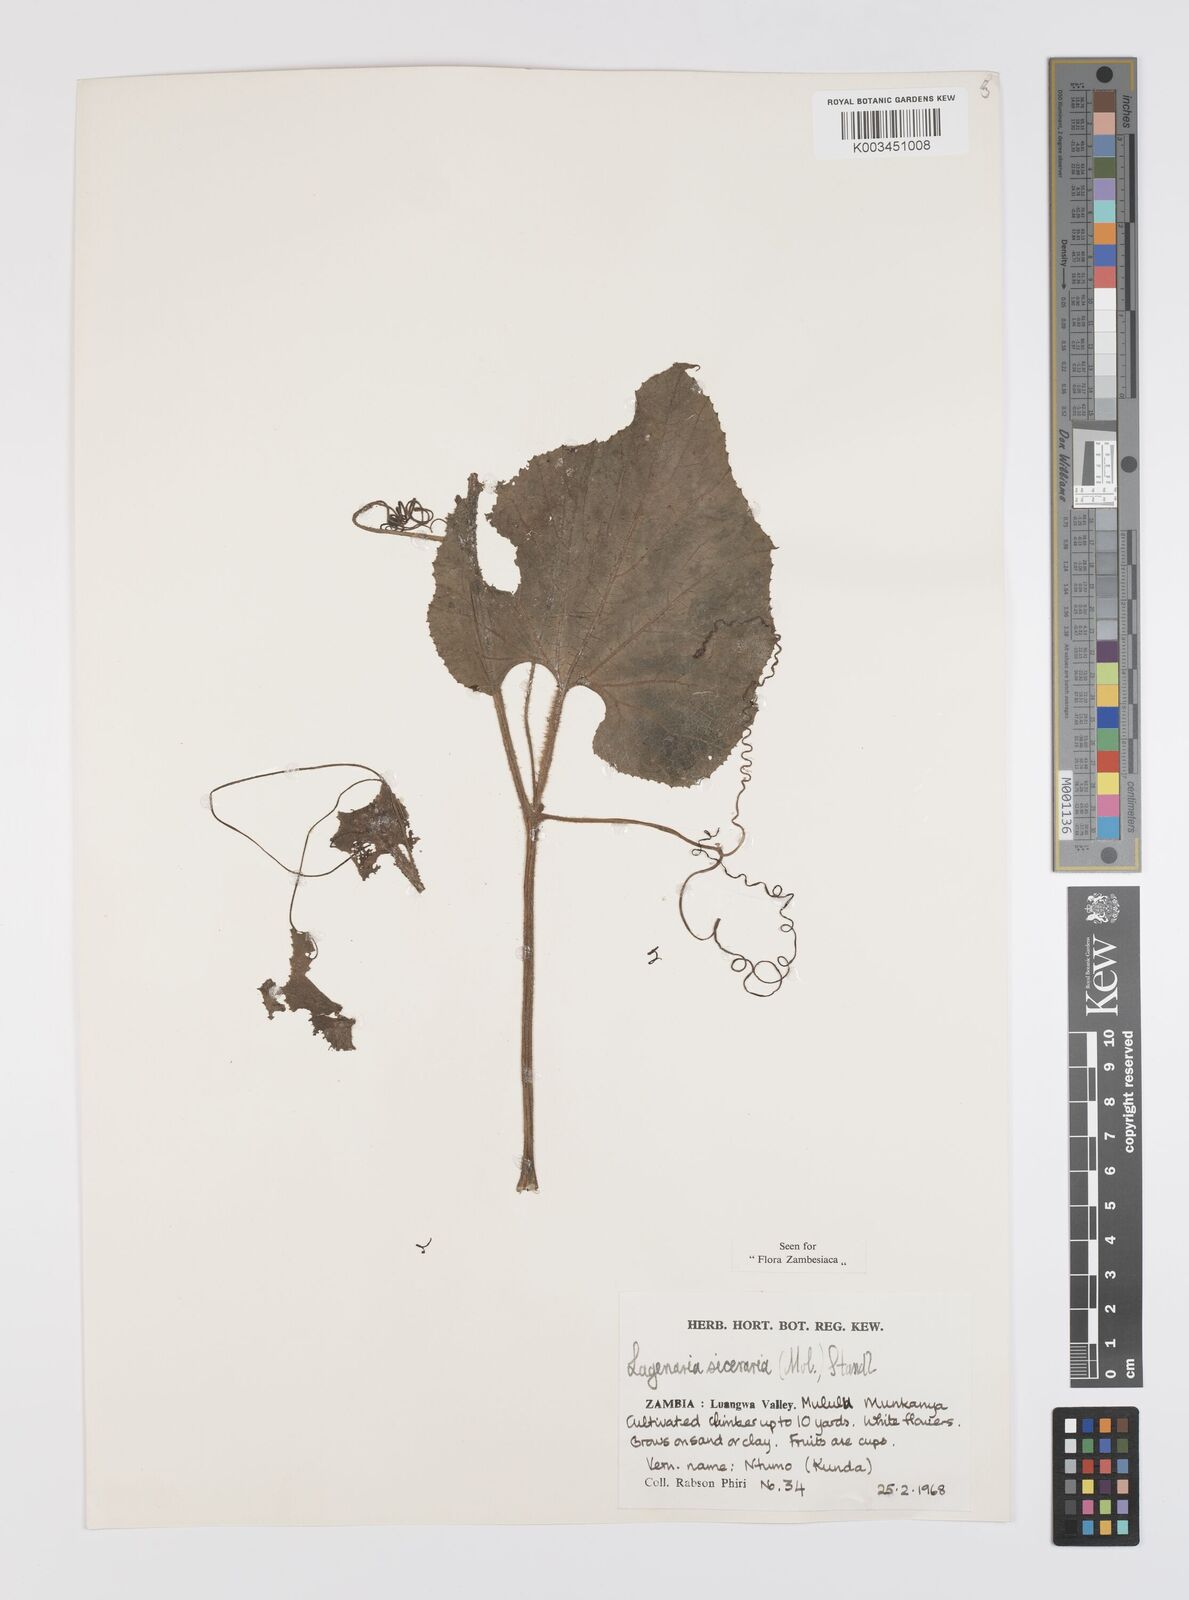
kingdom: Plantae
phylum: Tracheophyta
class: Magnoliopsida
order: Cucurbitales
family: Cucurbitaceae
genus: Lagenaria
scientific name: Lagenaria siceraria
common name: Bottle gourd
